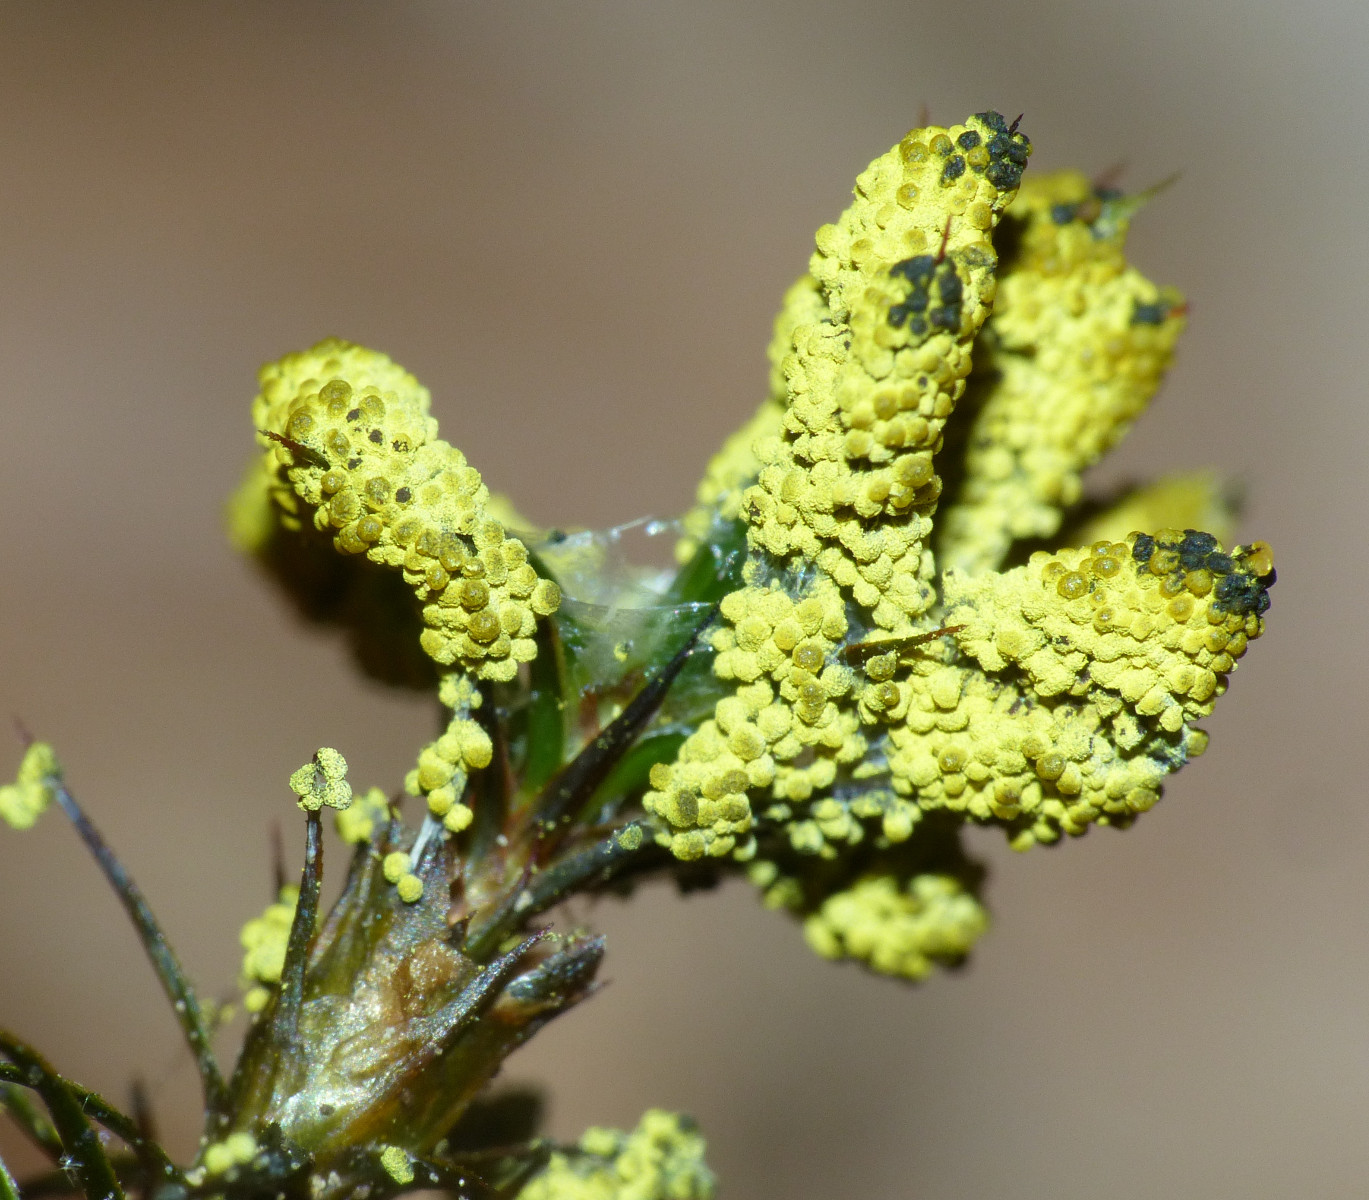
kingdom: Protozoa
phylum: Mycetozoa
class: Myxomycetes
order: Physarales
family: Physaraceae
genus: Physarum
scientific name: Physarum virescens
